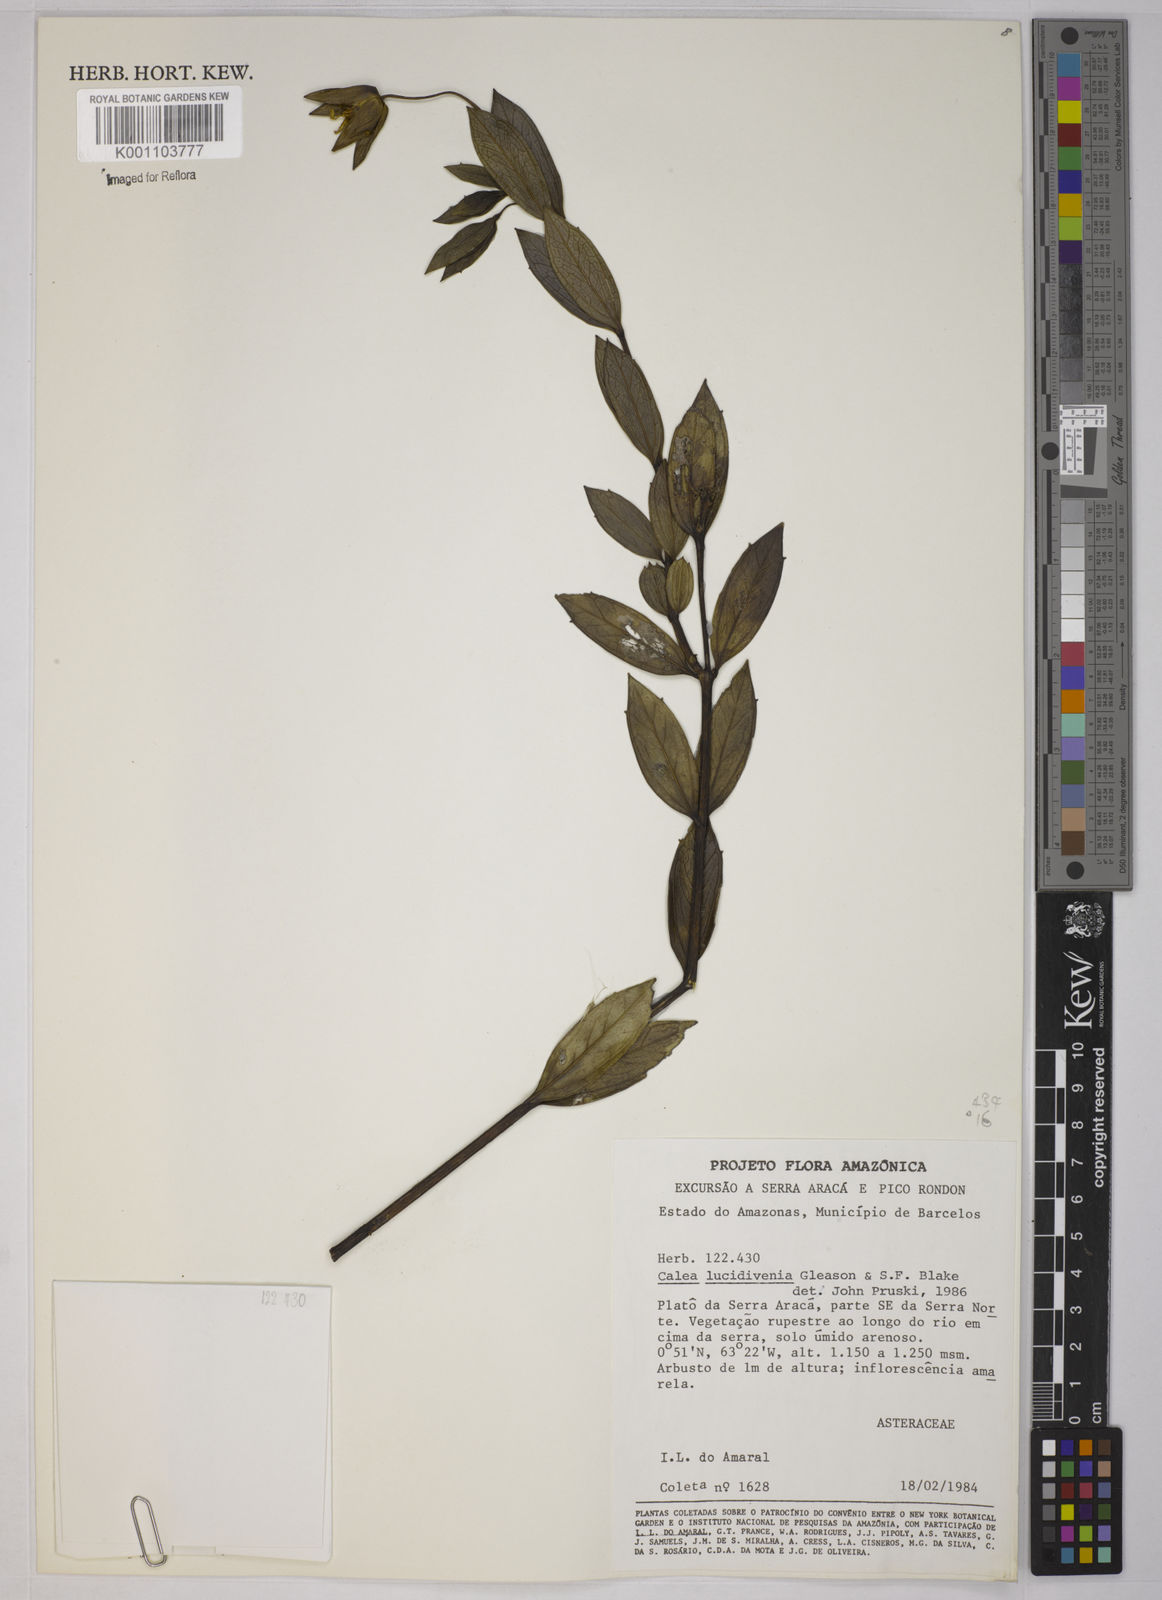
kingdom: Plantae
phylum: Tracheophyta
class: Magnoliopsida
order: Asterales
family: Asteraceae
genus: Calea
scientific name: Calea lucidivenia
